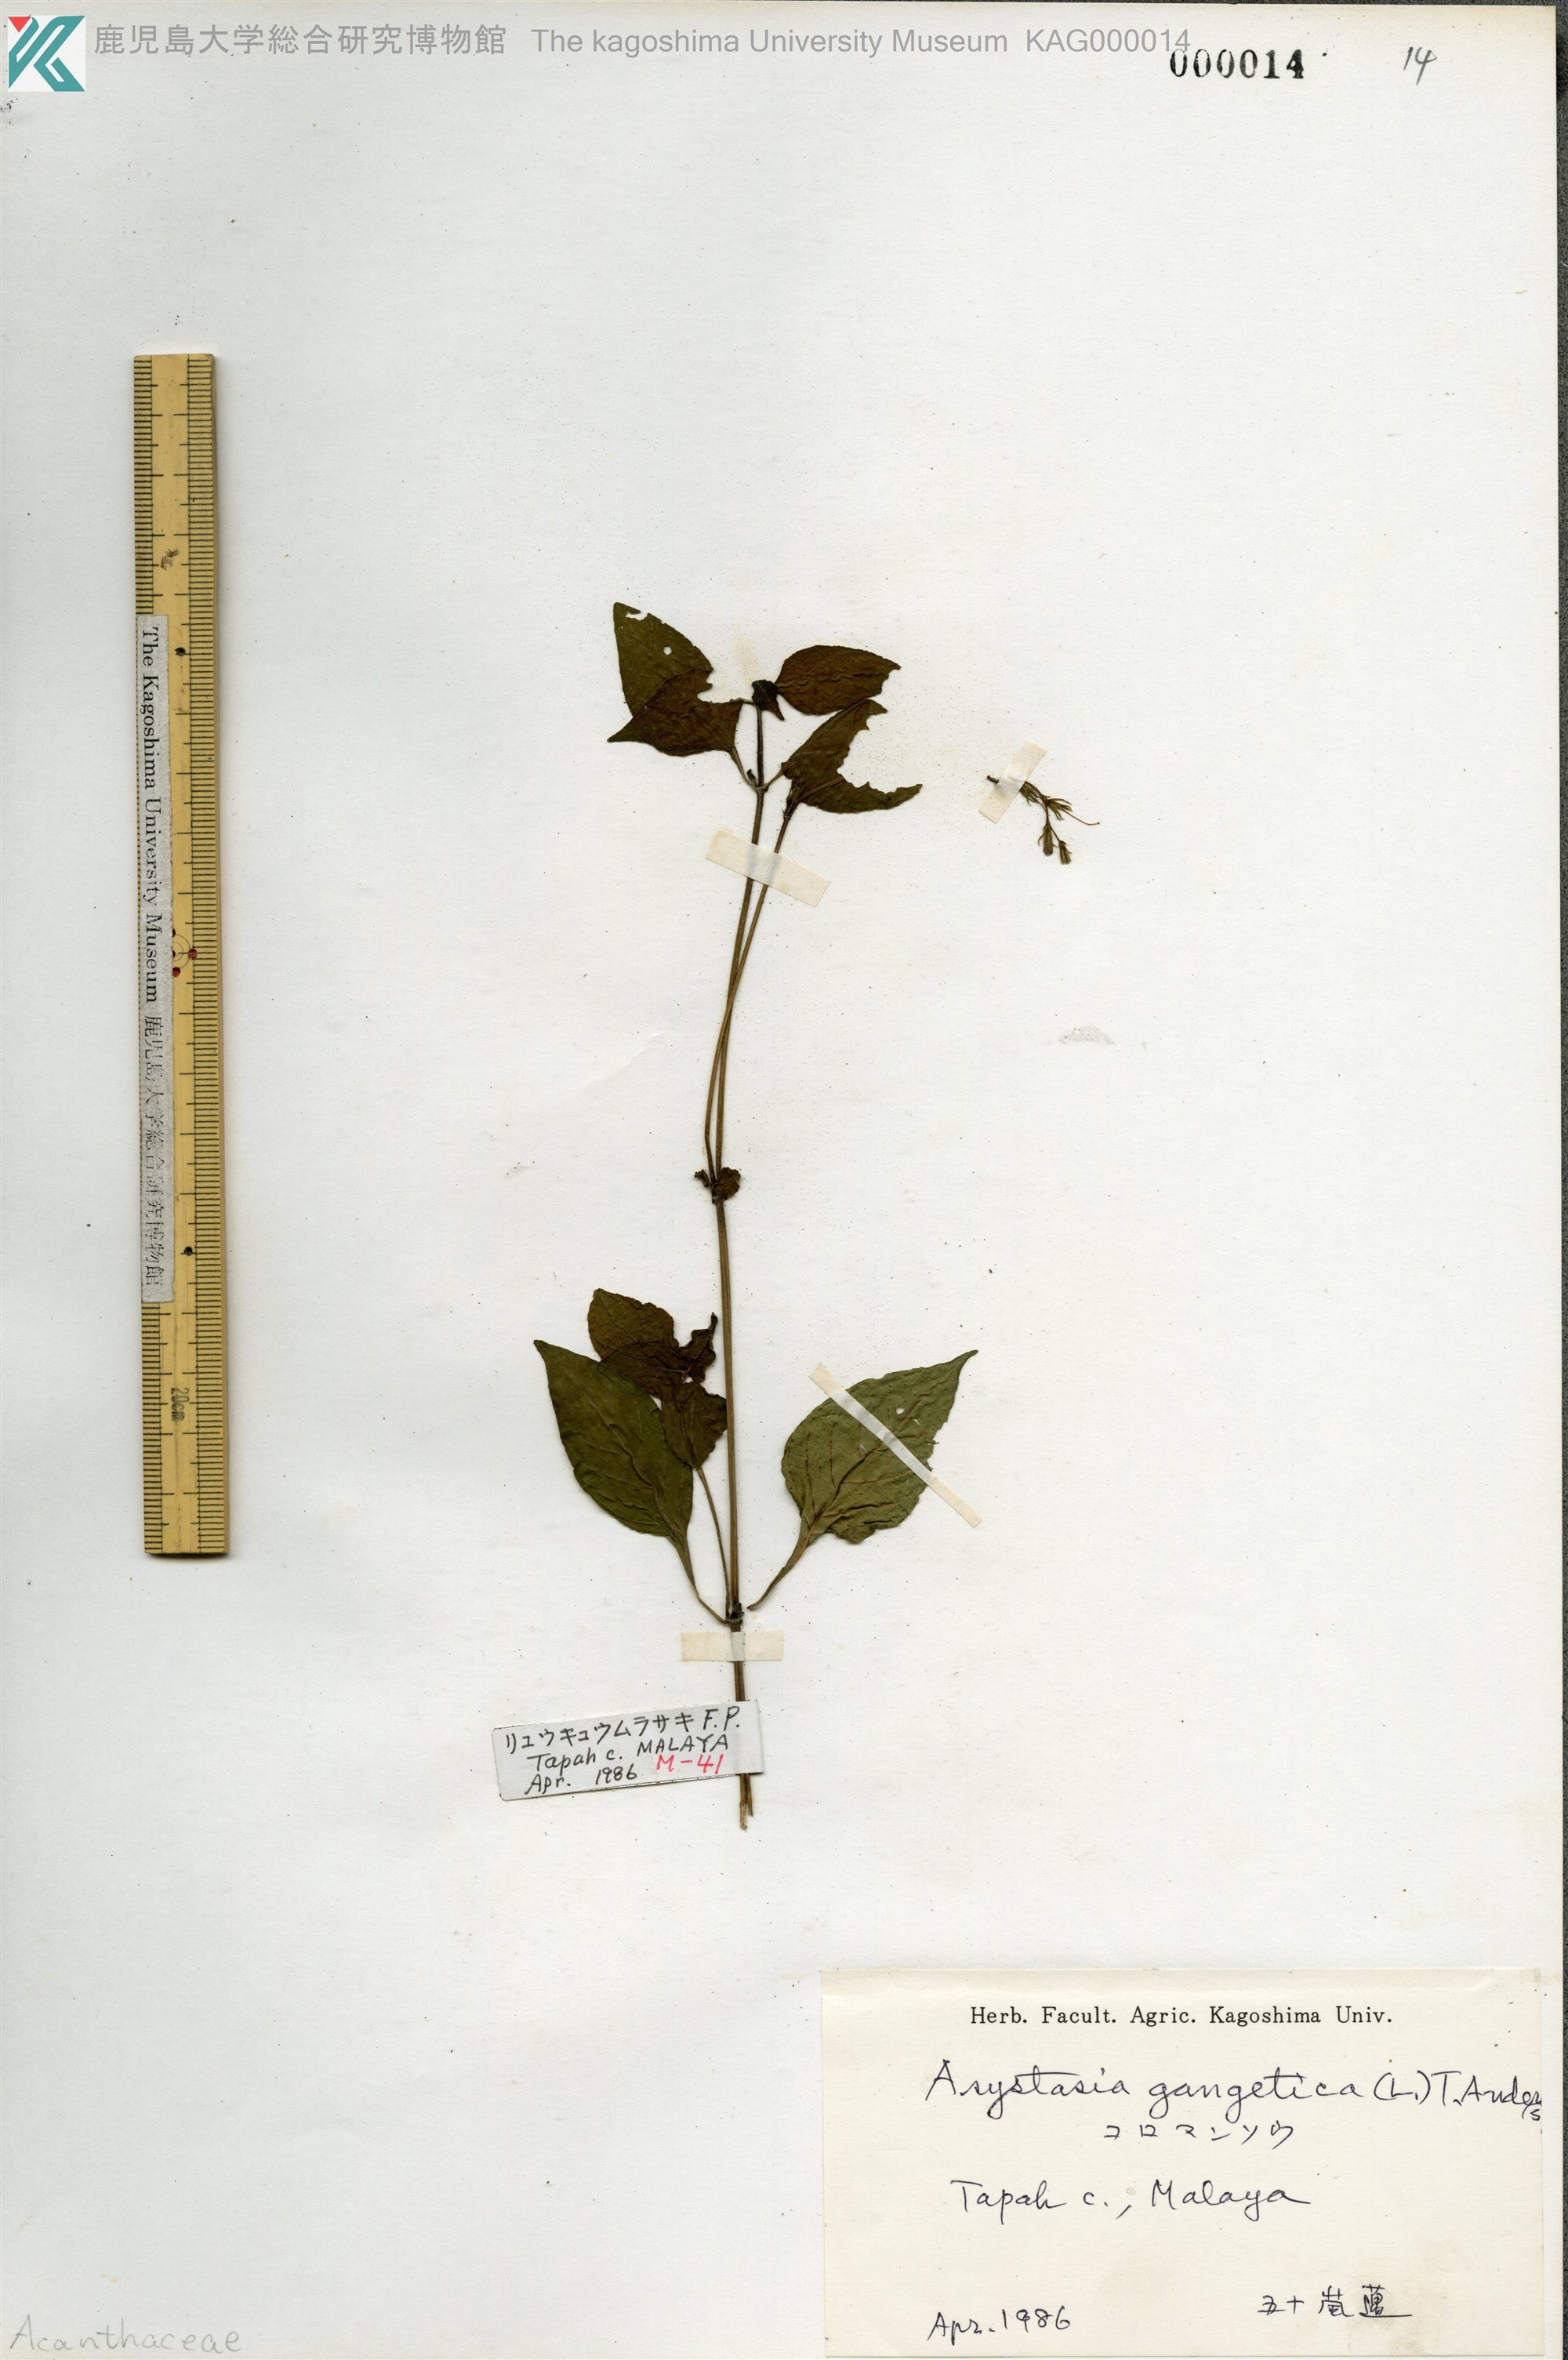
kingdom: Plantae
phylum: Tracheophyta
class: Magnoliopsida
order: Lamiales
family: Acanthaceae
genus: Asystasia
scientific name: Asystasia gangetica
